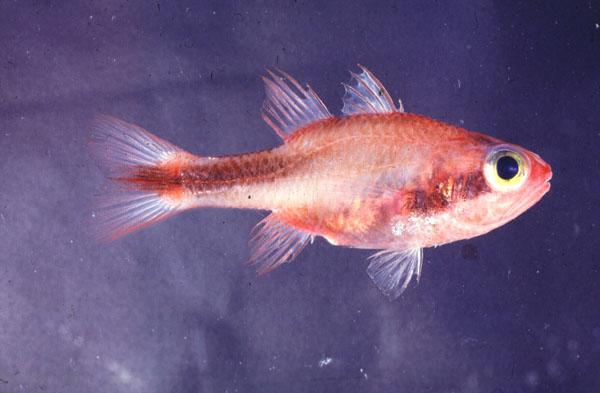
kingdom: Animalia
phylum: Chordata
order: Perciformes
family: Apogonidae
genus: Apogon
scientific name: Apogon semiornatus
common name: Threeband cardinalfish
